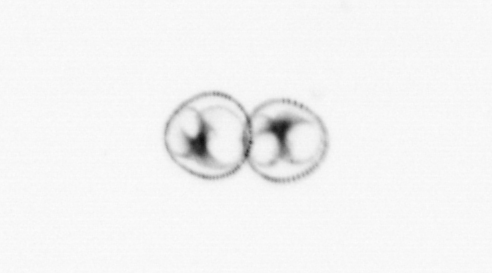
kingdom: Chromista
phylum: Myzozoa
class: Dinophyceae
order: Noctilucales
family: Noctilucaceae
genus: Noctiluca
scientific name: Noctiluca scintillans
